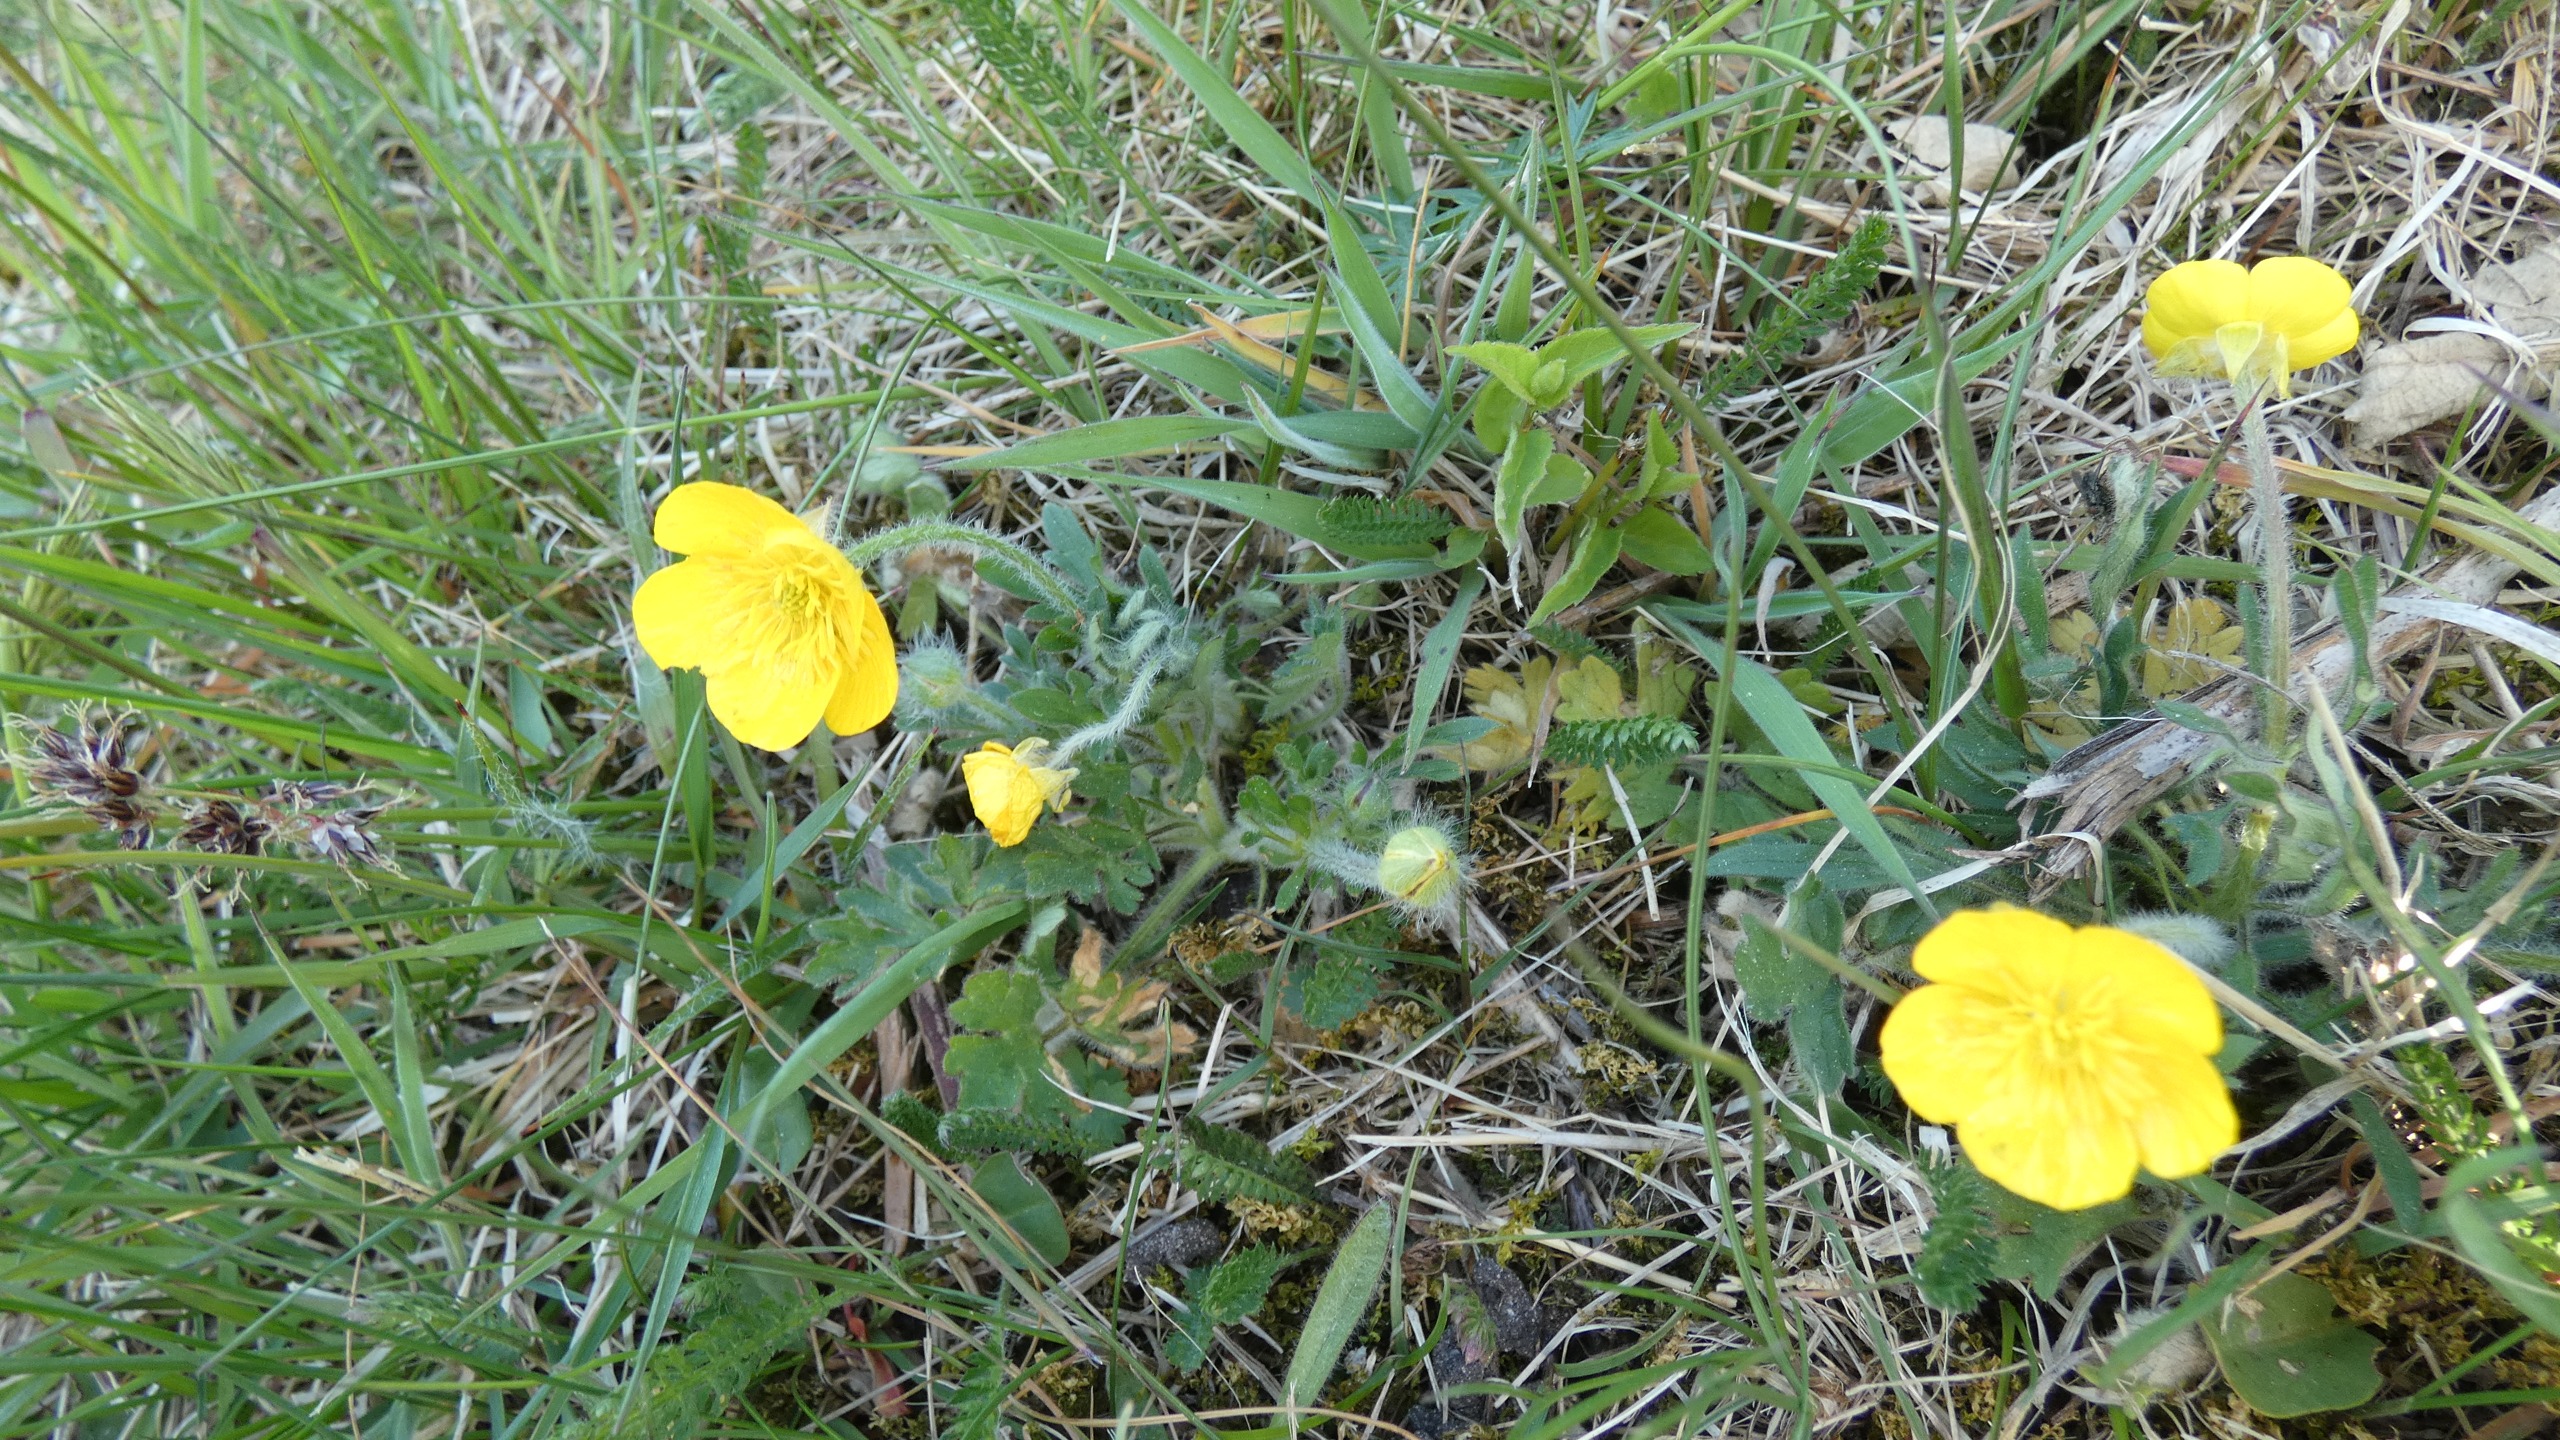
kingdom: Plantae
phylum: Tracheophyta
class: Magnoliopsida
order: Ranunculales
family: Ranunculaceae
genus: Ranunculus
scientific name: Ranunculus bulbosus
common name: Knold-ranunkel
